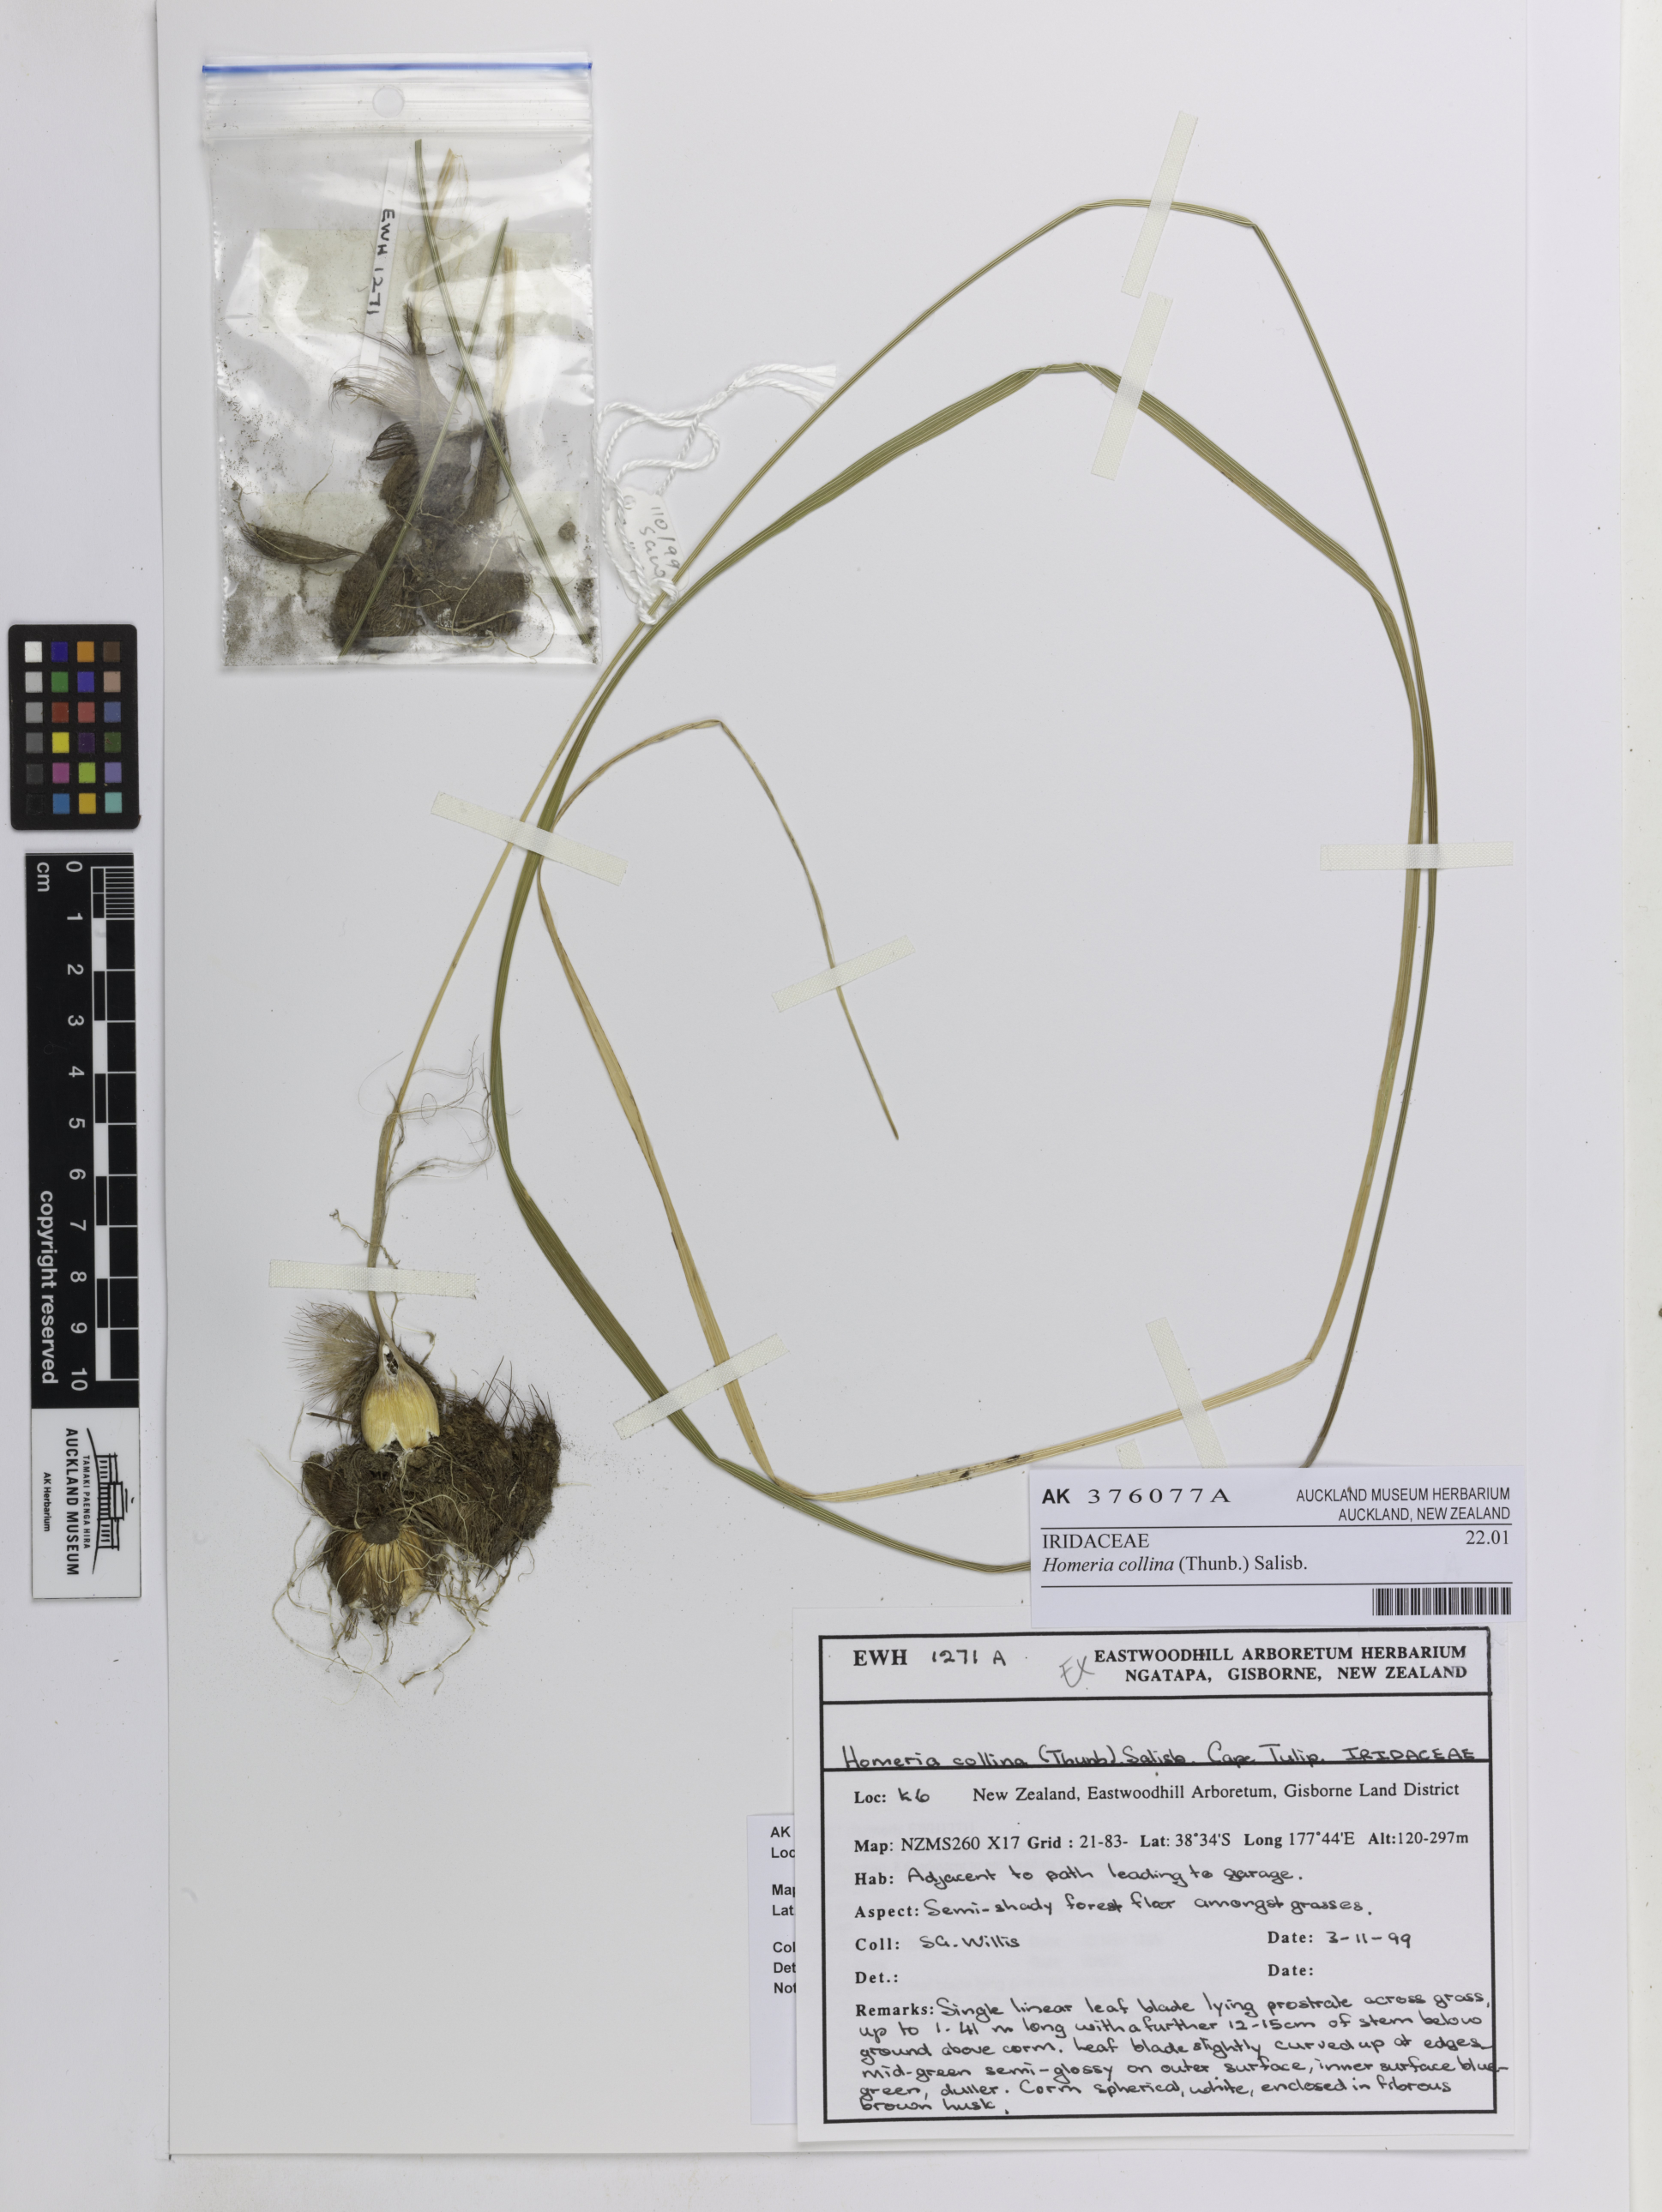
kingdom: Plantae
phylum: Tracheophyta
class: Liliopsida
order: Asparagales
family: Iridaceae
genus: Moraea
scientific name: Moraea collina
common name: Cape-tulip
